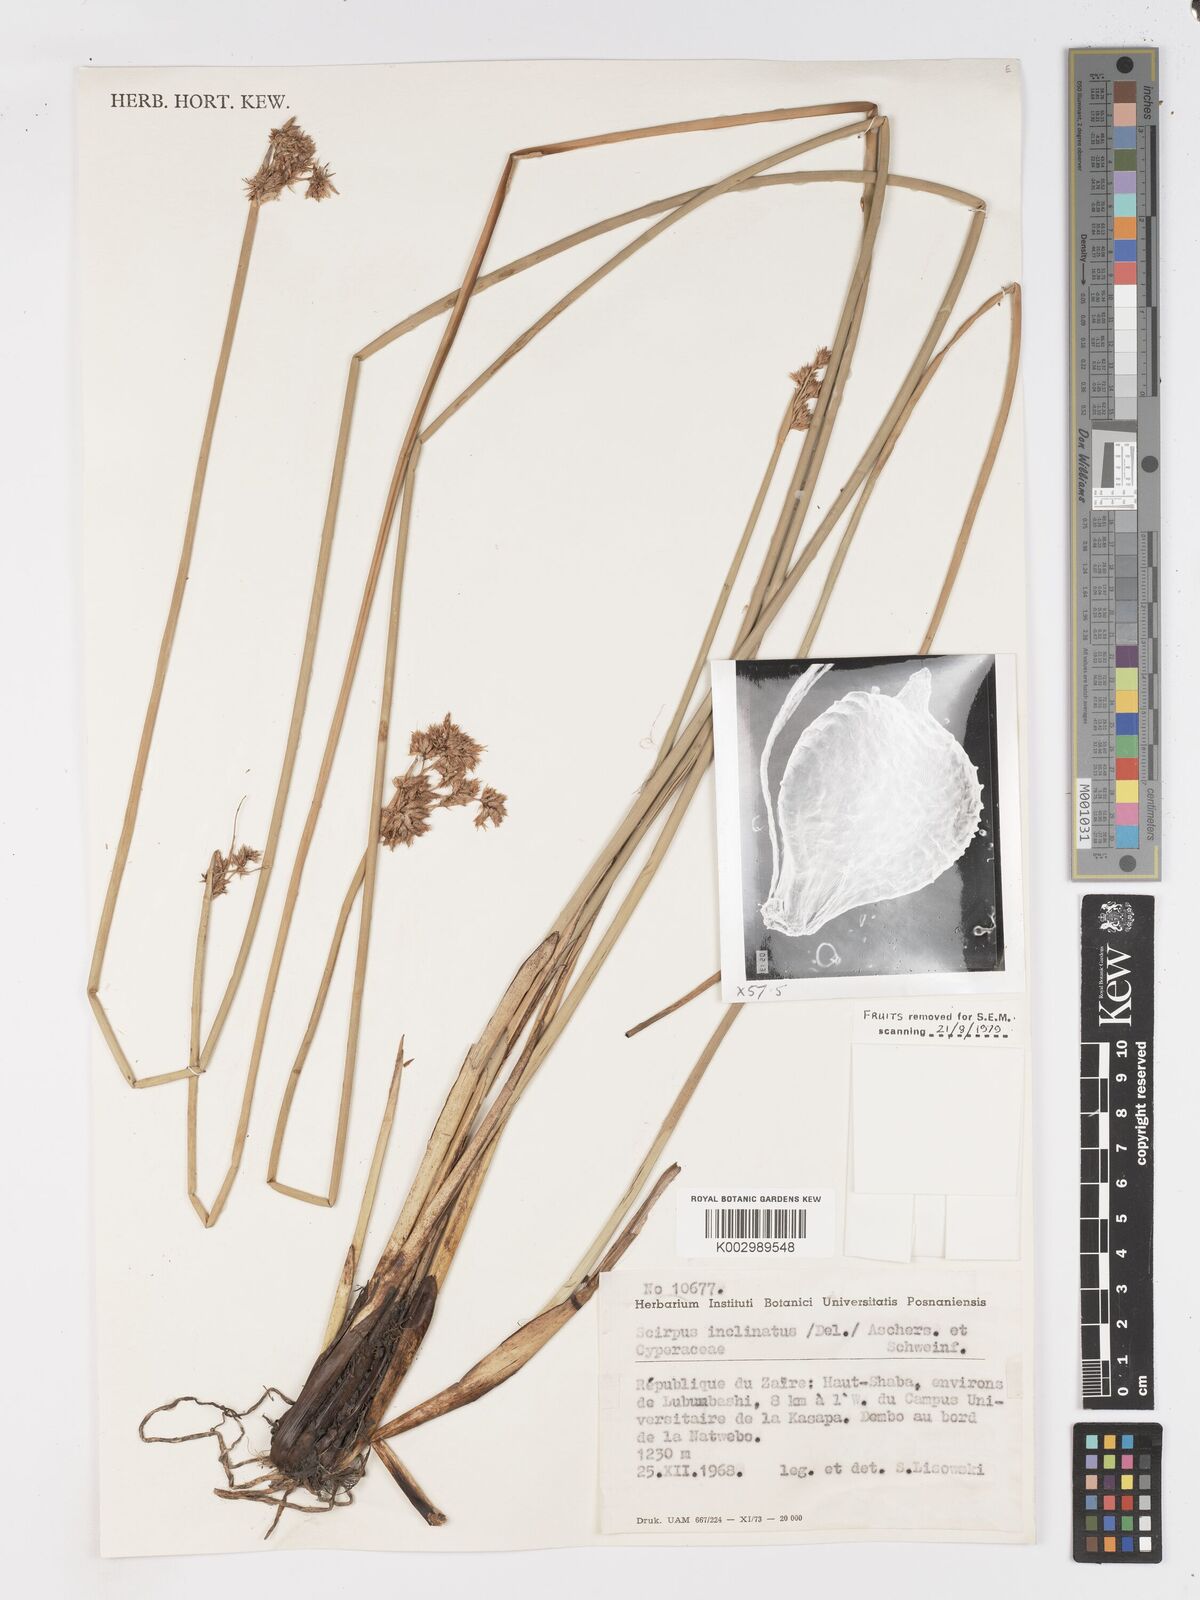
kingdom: Plantae
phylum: Tracheophyta
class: Liliopsida
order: Poales
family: Cyperaceae
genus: Schoenoplectiella
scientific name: Schoenoplectiella confusa
